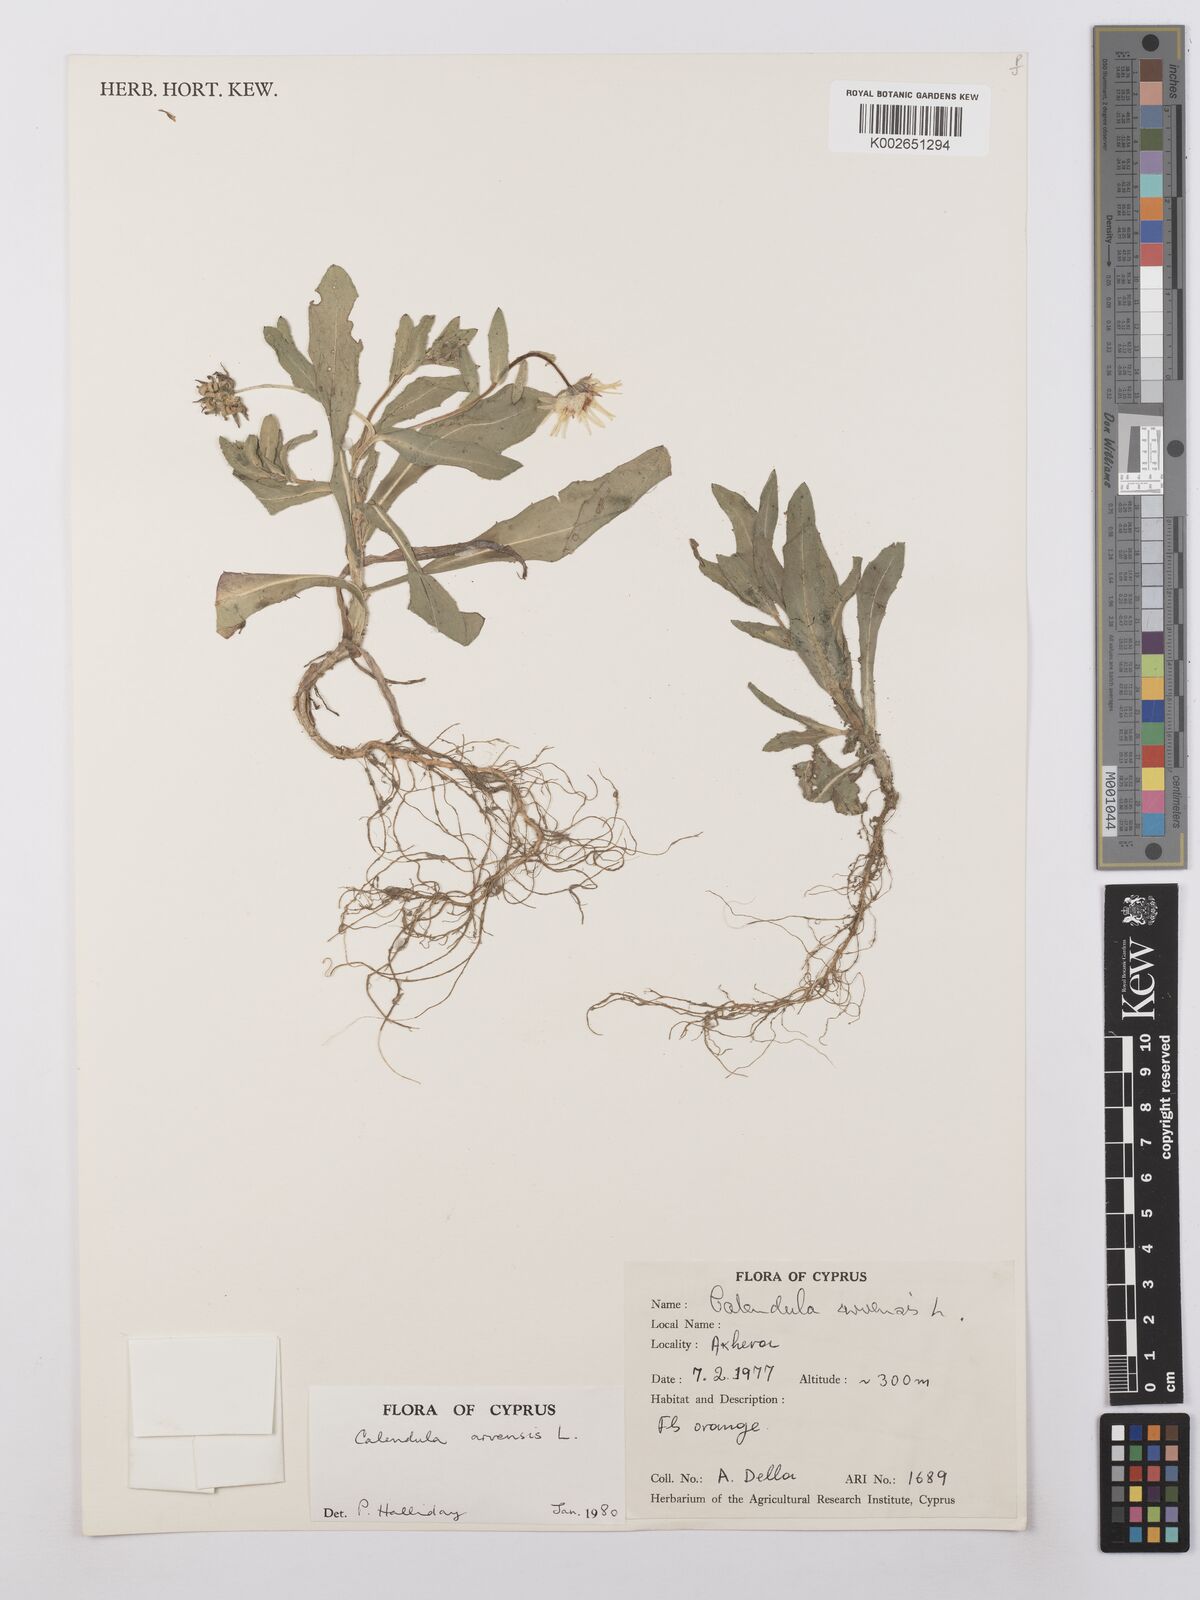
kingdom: Plantae
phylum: Tracheophyta
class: Magnoliopsida
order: Asterales
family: Asteraceae
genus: Calendula
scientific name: Calendula arvensis
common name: Field marigold
